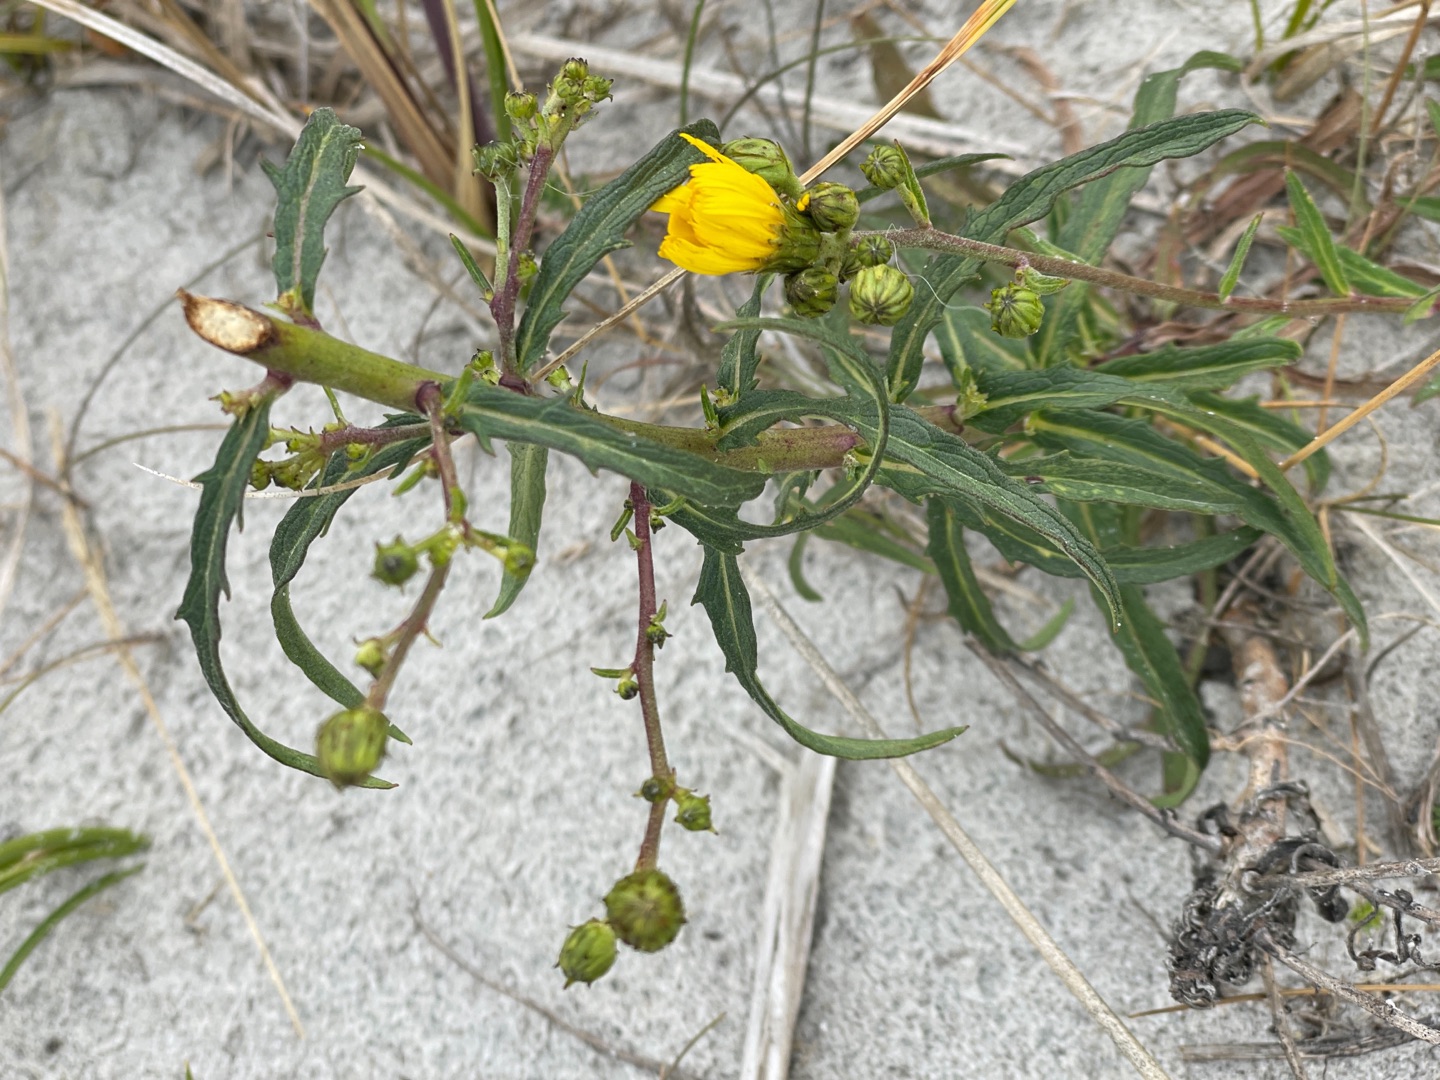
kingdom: Plantae
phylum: Tracheophyta
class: Magnoliopsida
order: Asterales
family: Asteraceae
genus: Hieracium
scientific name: Hieracium umbellatum
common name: Smalbladet høgeurt
